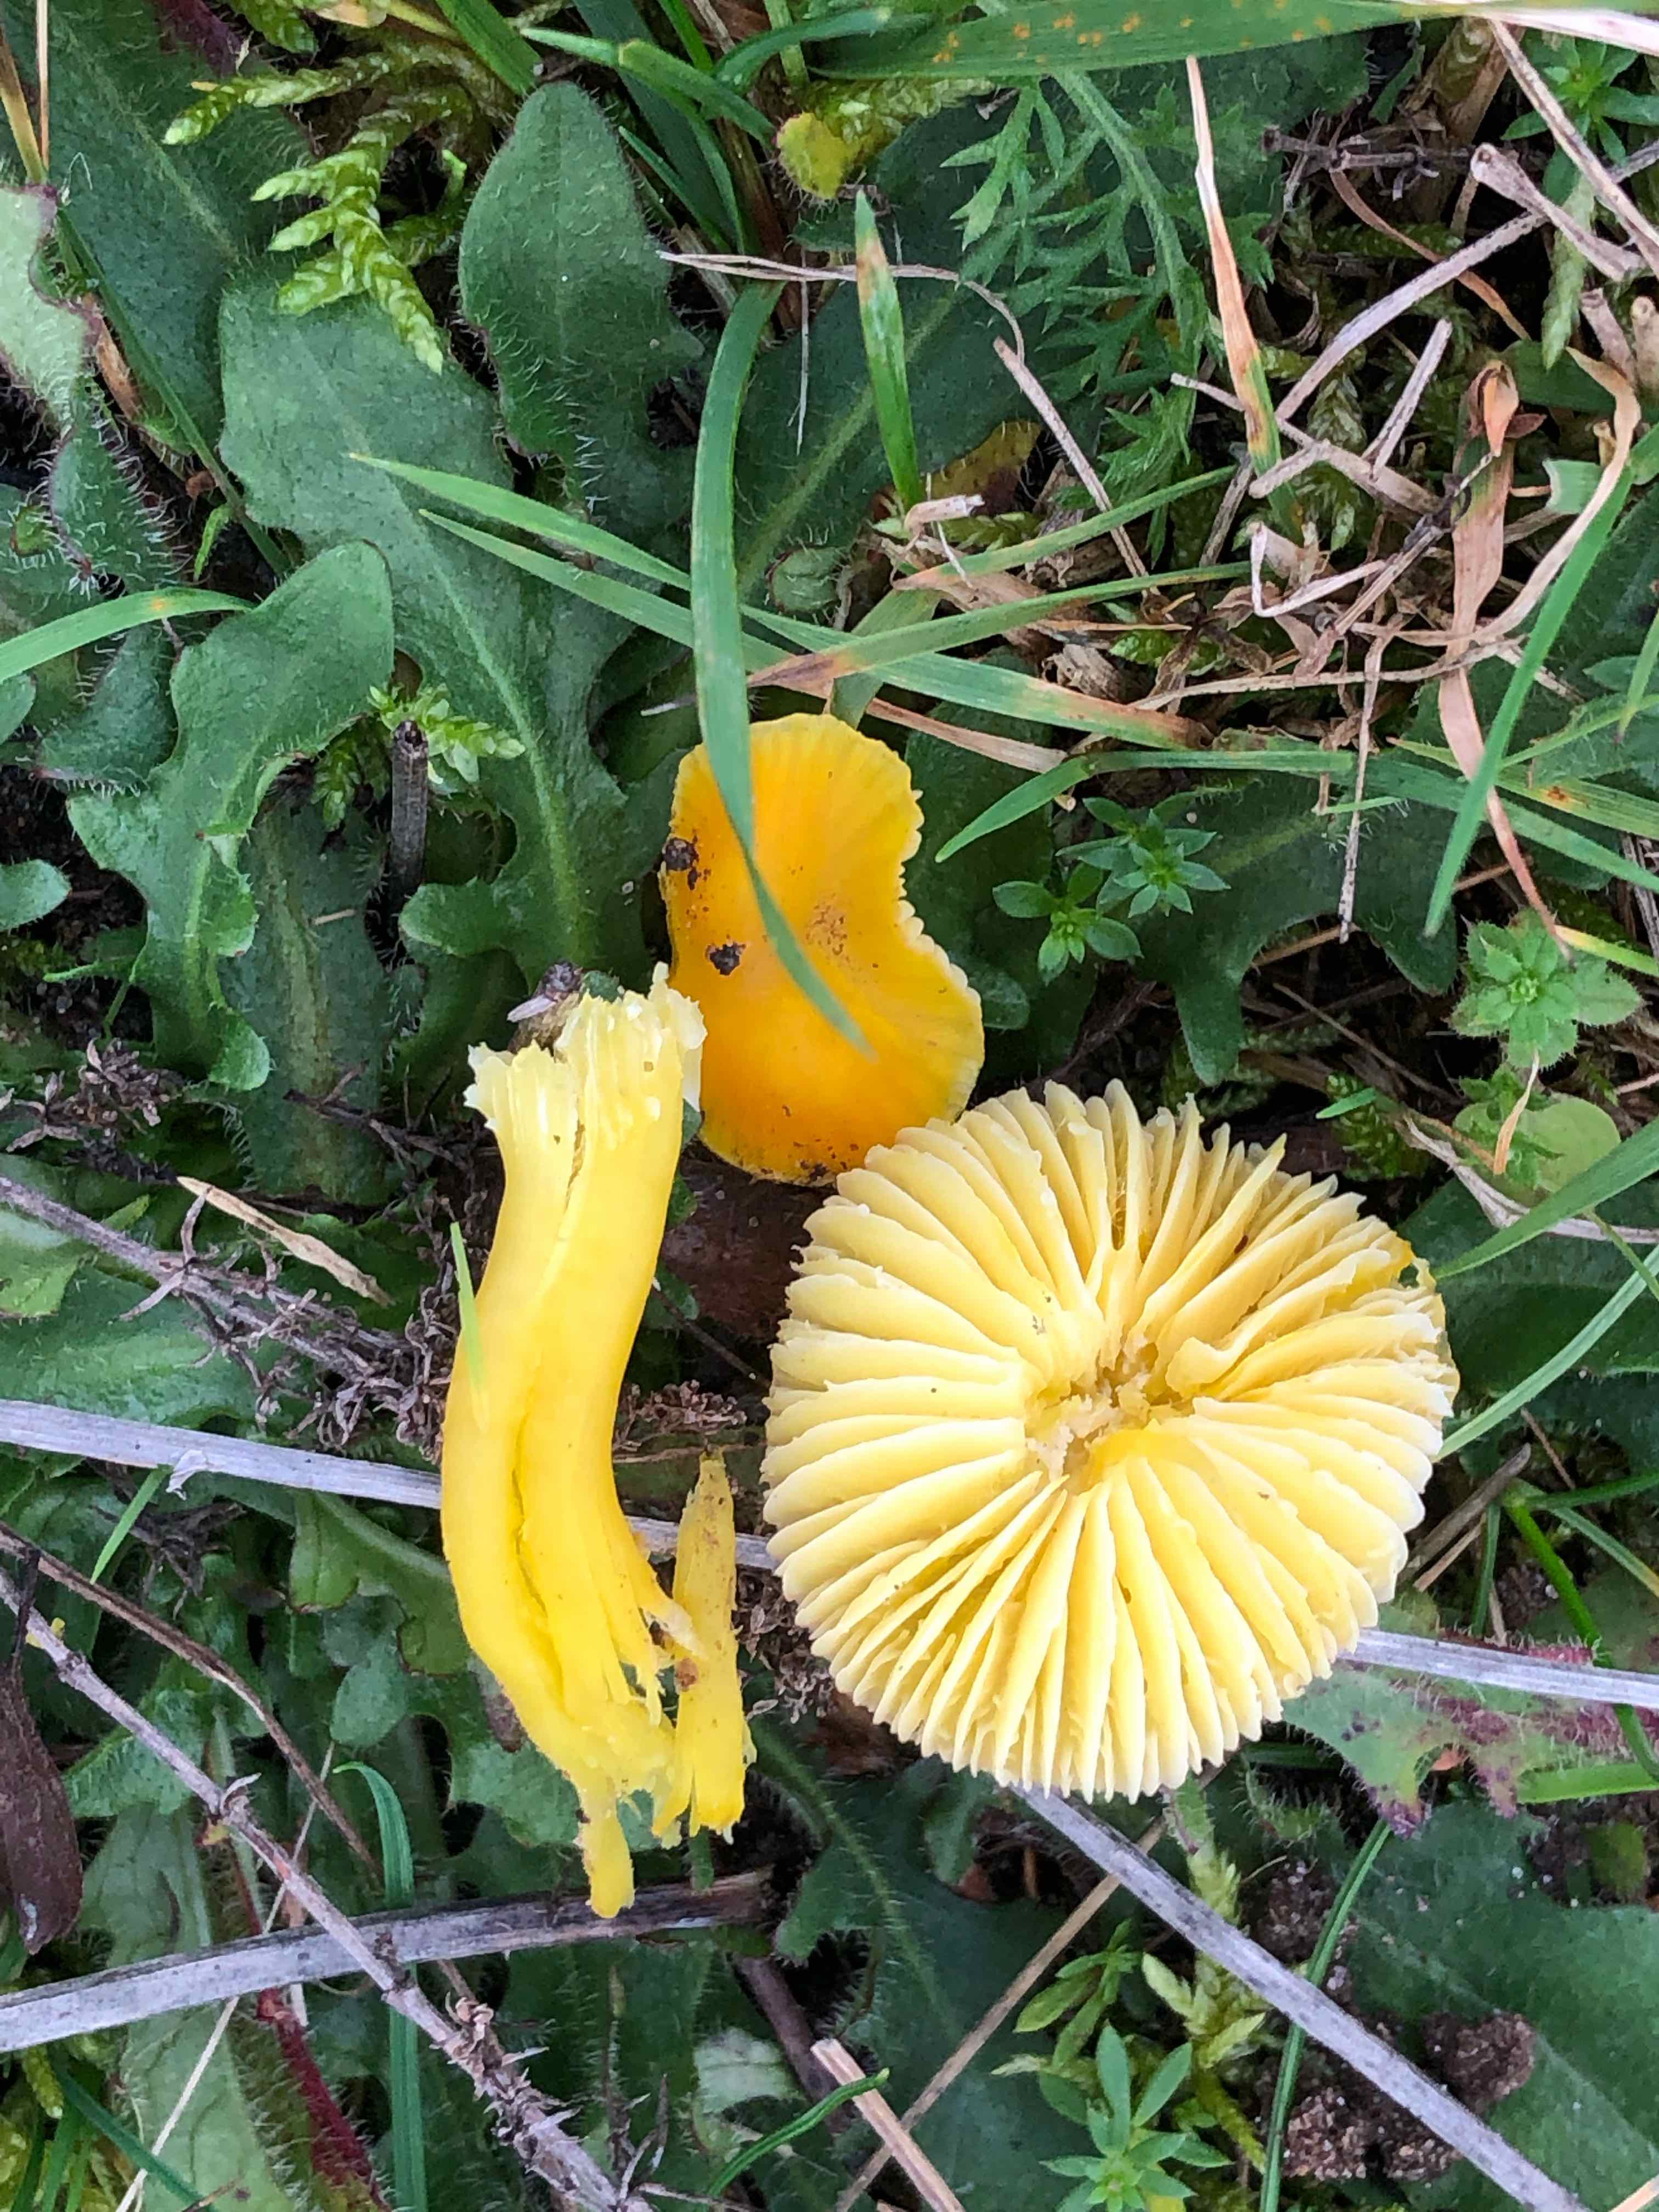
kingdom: Fungi
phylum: Basidiomycota
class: Agaricomycetes
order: Agaricales
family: Hygrophoraceae
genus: Hygrocybe
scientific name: Hygrocybe ceracea
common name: voksgul vokshat
